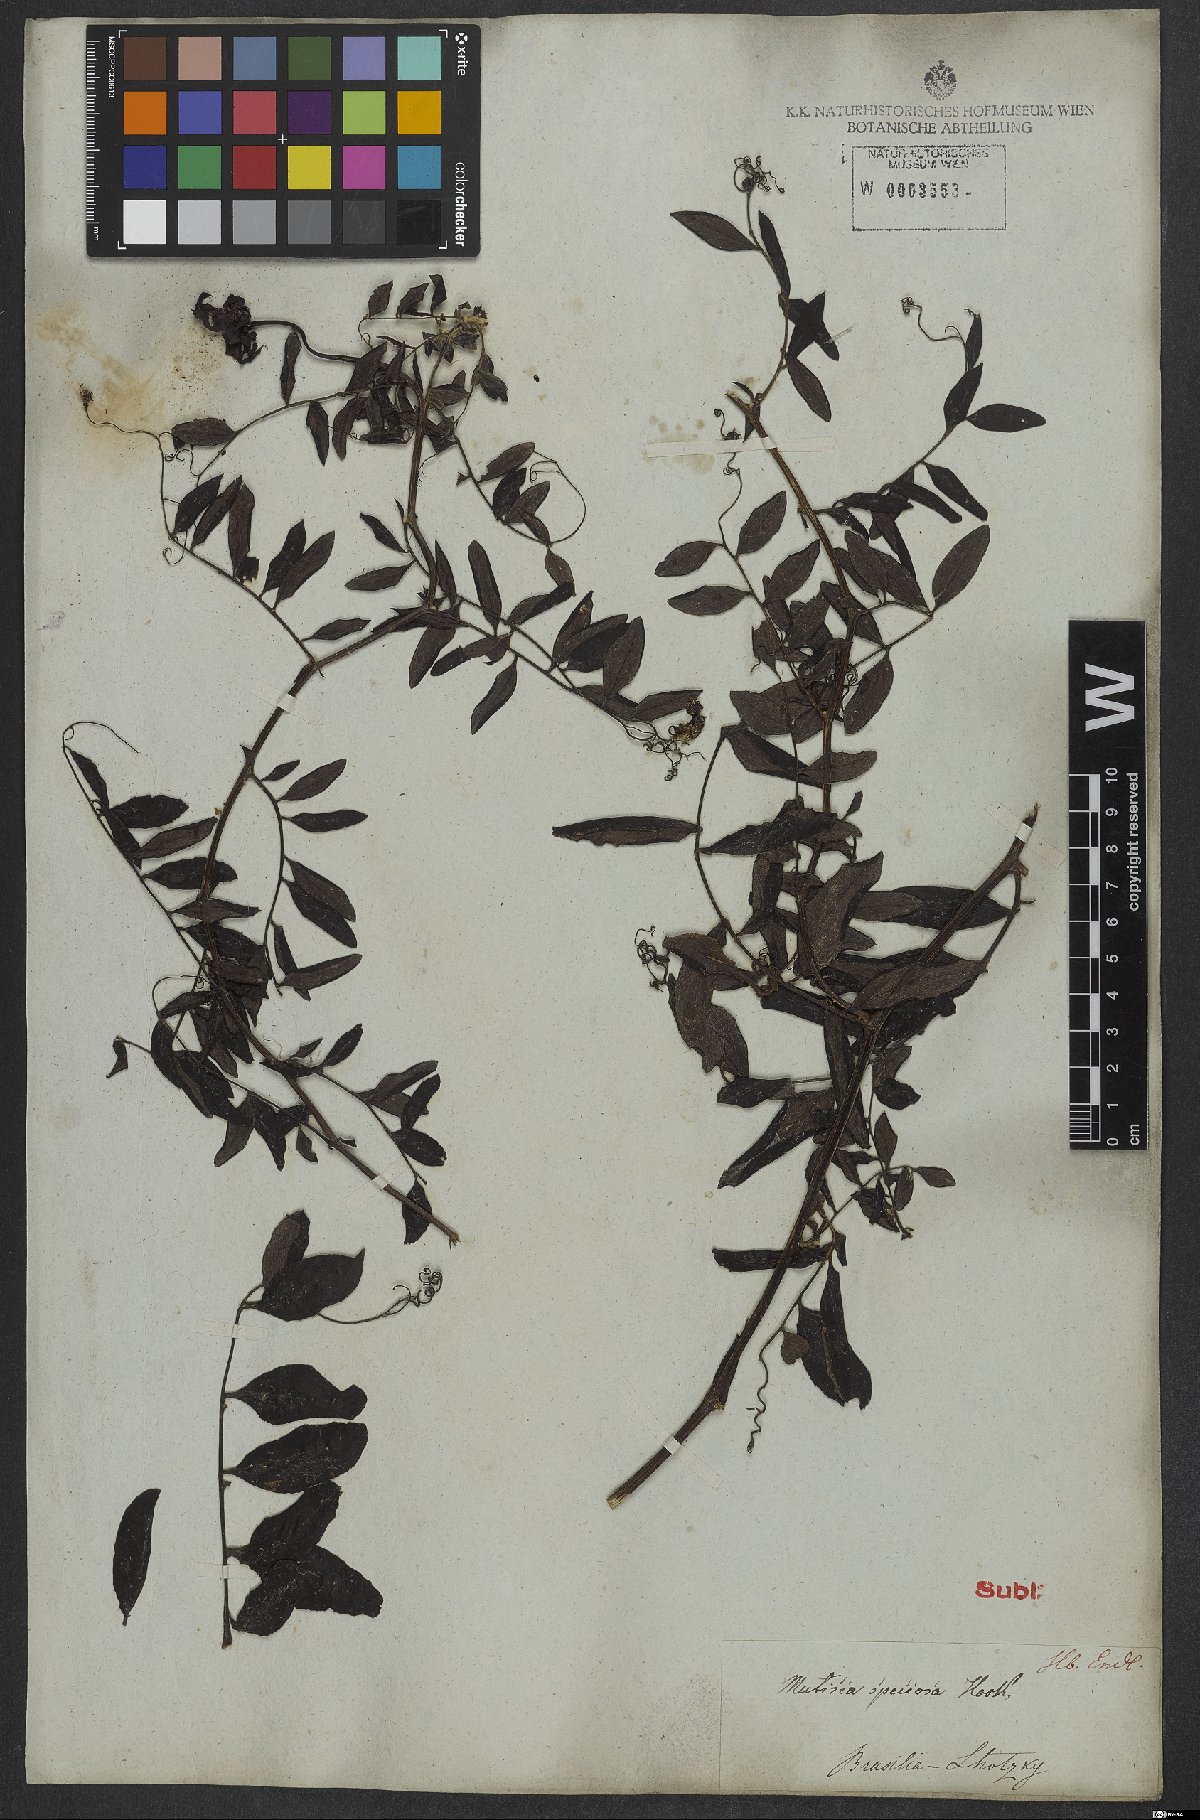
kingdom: Plantae
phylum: Tracheophyta
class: Magnoliopsida
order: Asterales
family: Asteraceae
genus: Mutisia
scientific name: Mutisia speciosa
